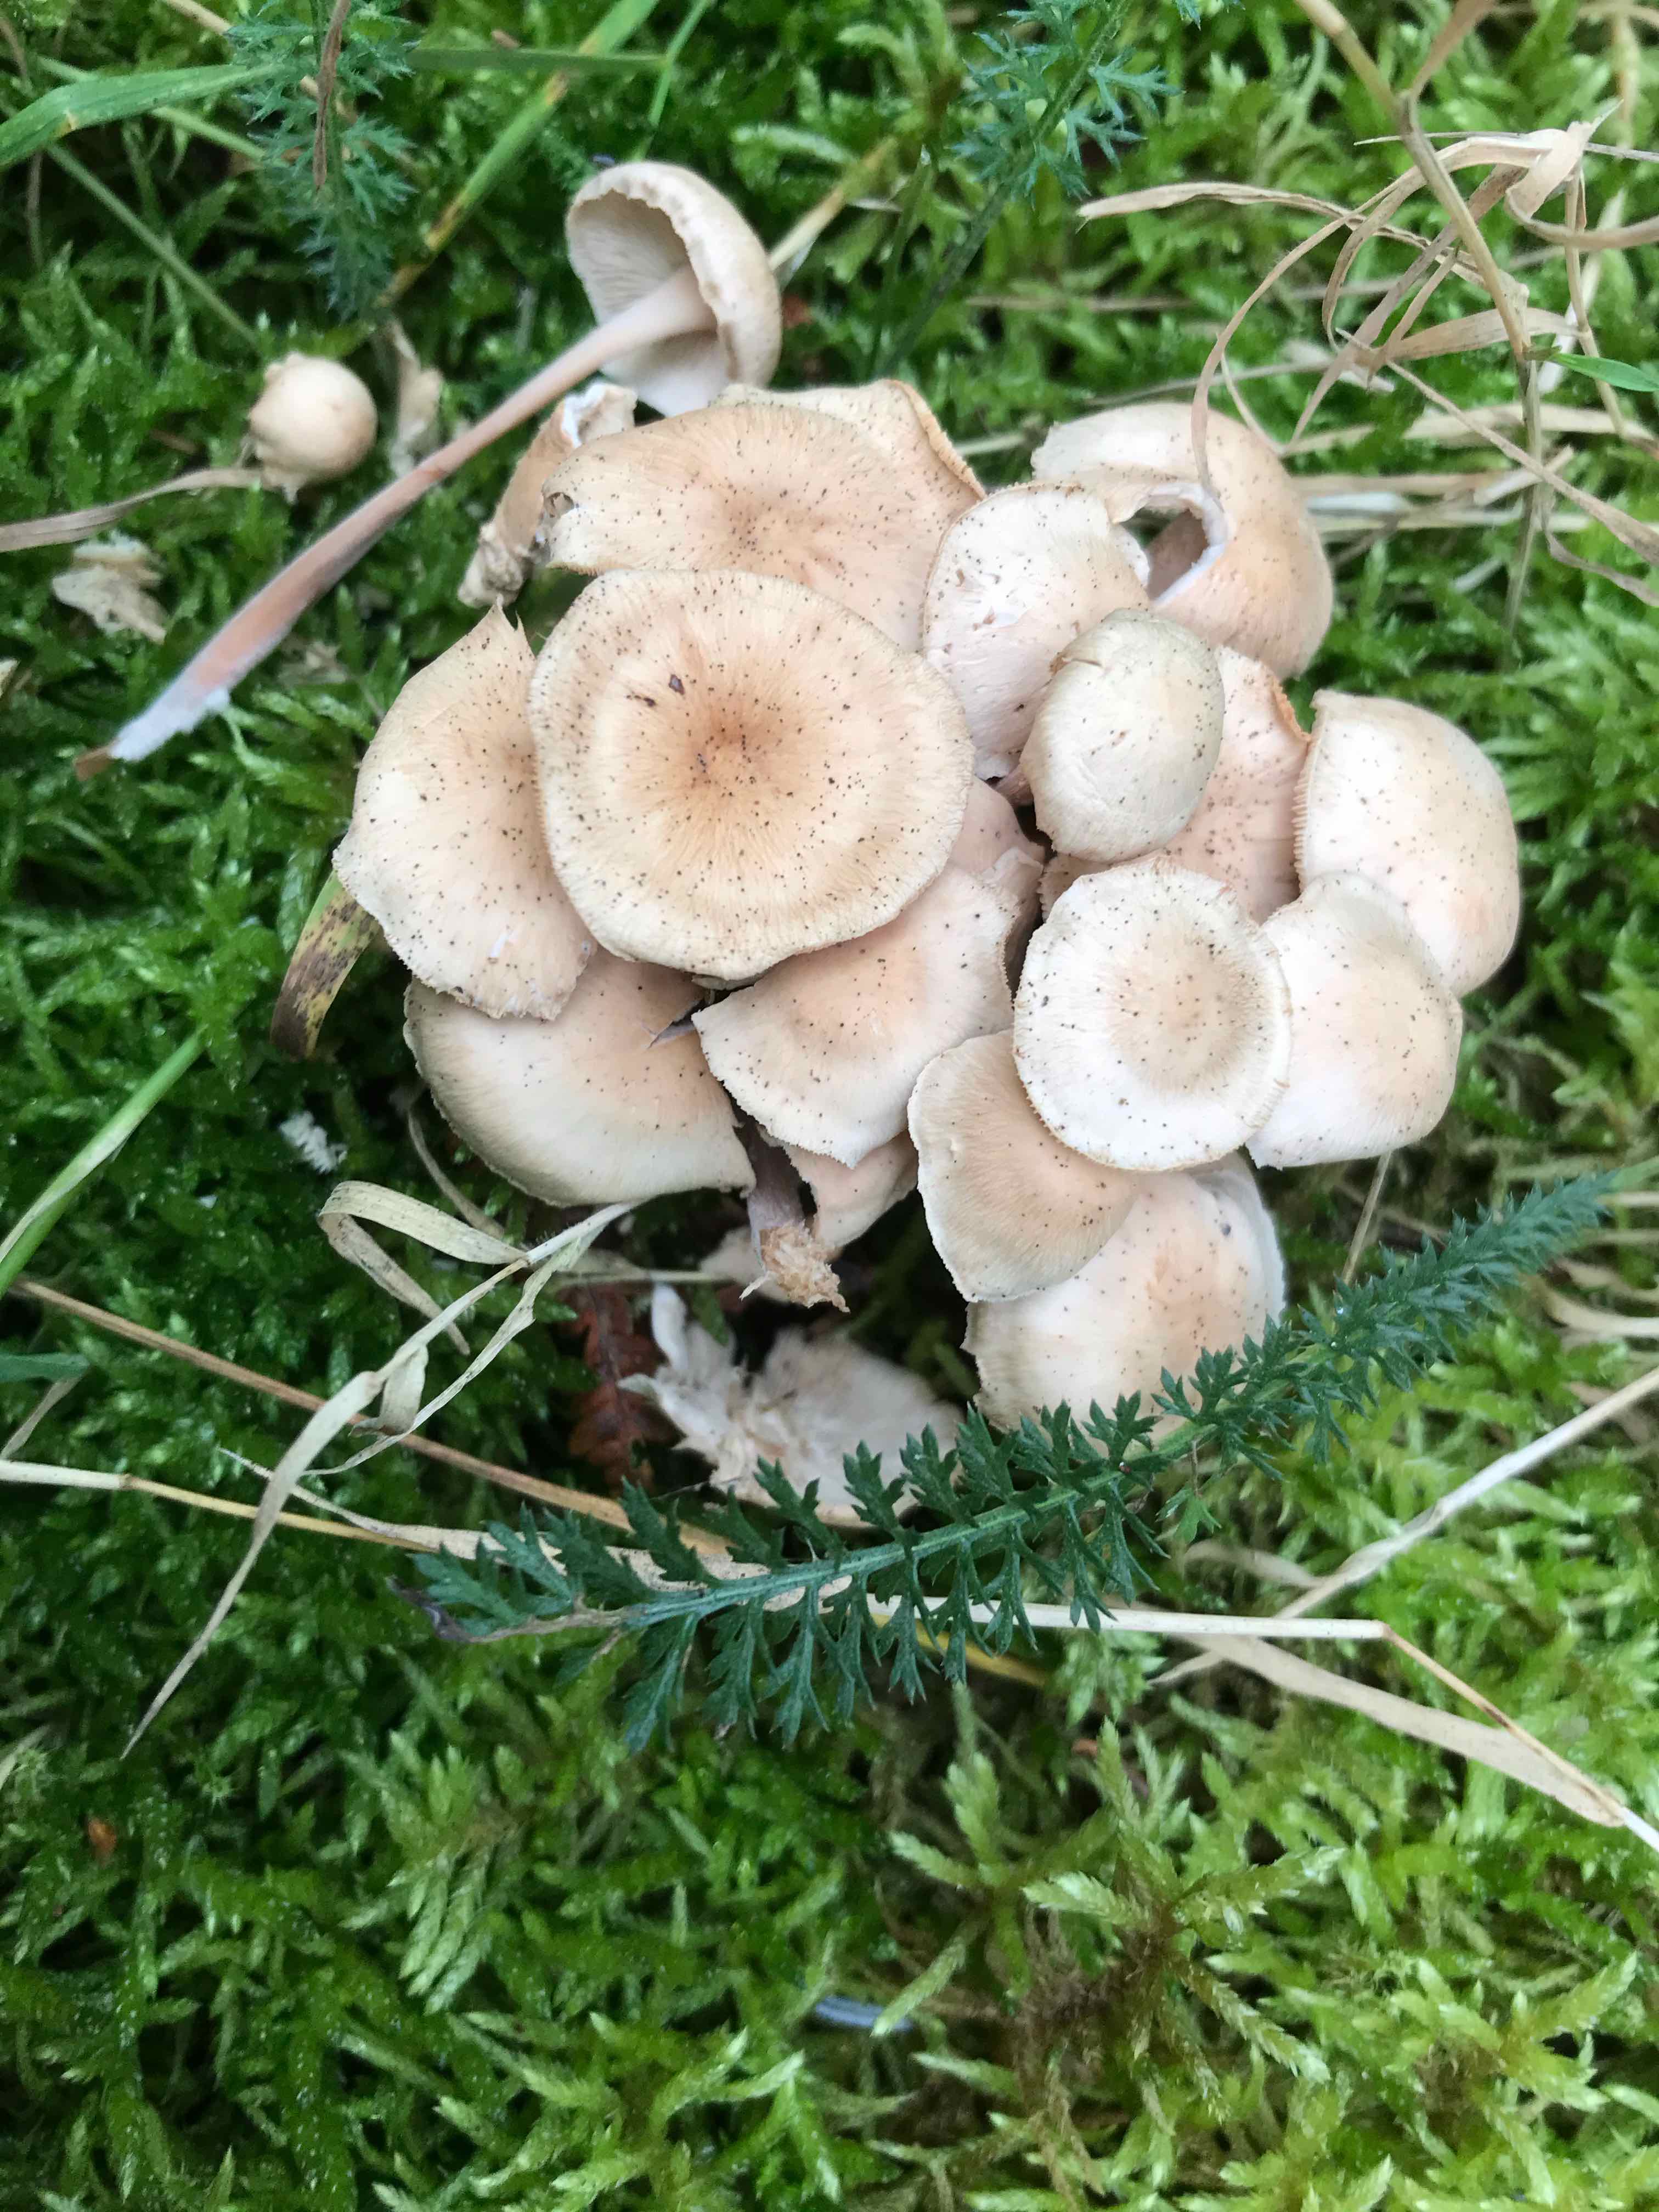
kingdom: Fungi
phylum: Basidiomycota
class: Agaricomycetes
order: Agaricales
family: Omphalotaceae
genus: Collybiopsis
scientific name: Collybiopsis confluens
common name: knippe-fladhat
